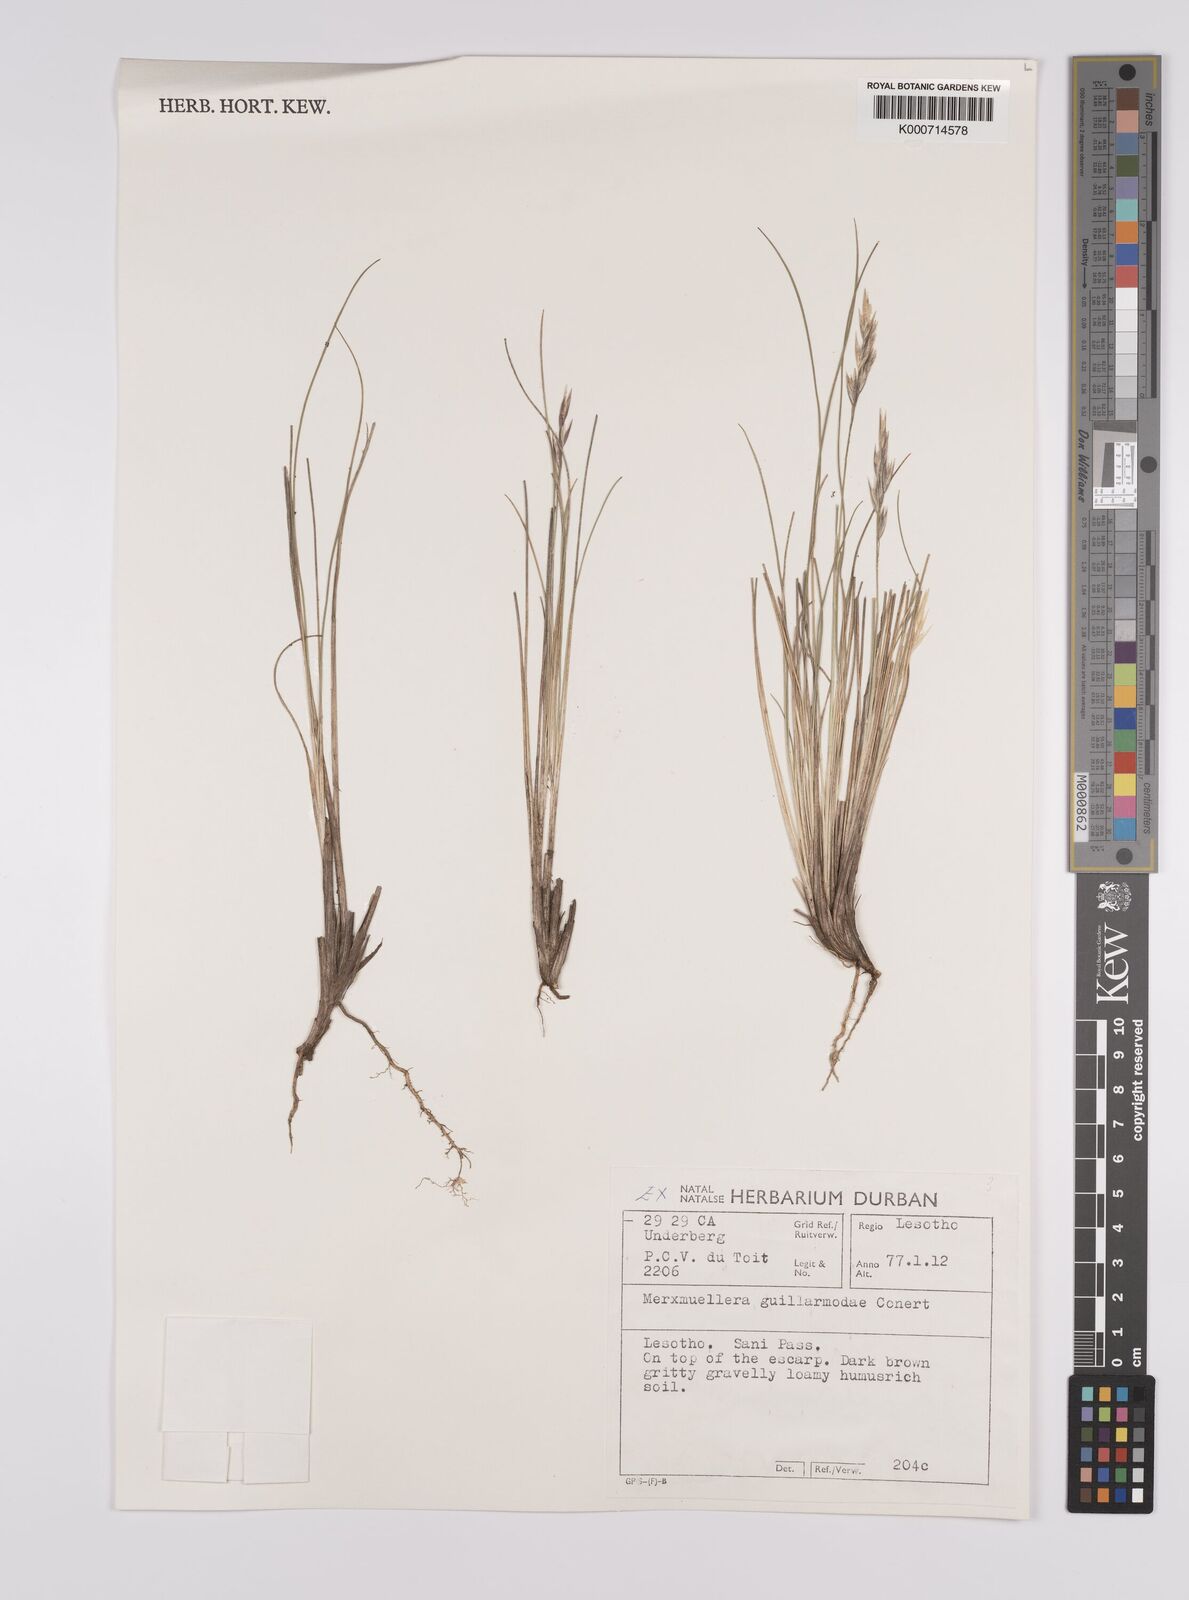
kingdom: Plantae
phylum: Tracheophyta
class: Liliopsida
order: Poales
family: Poaceae
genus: Rytidosperma
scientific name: Rytidosperma
